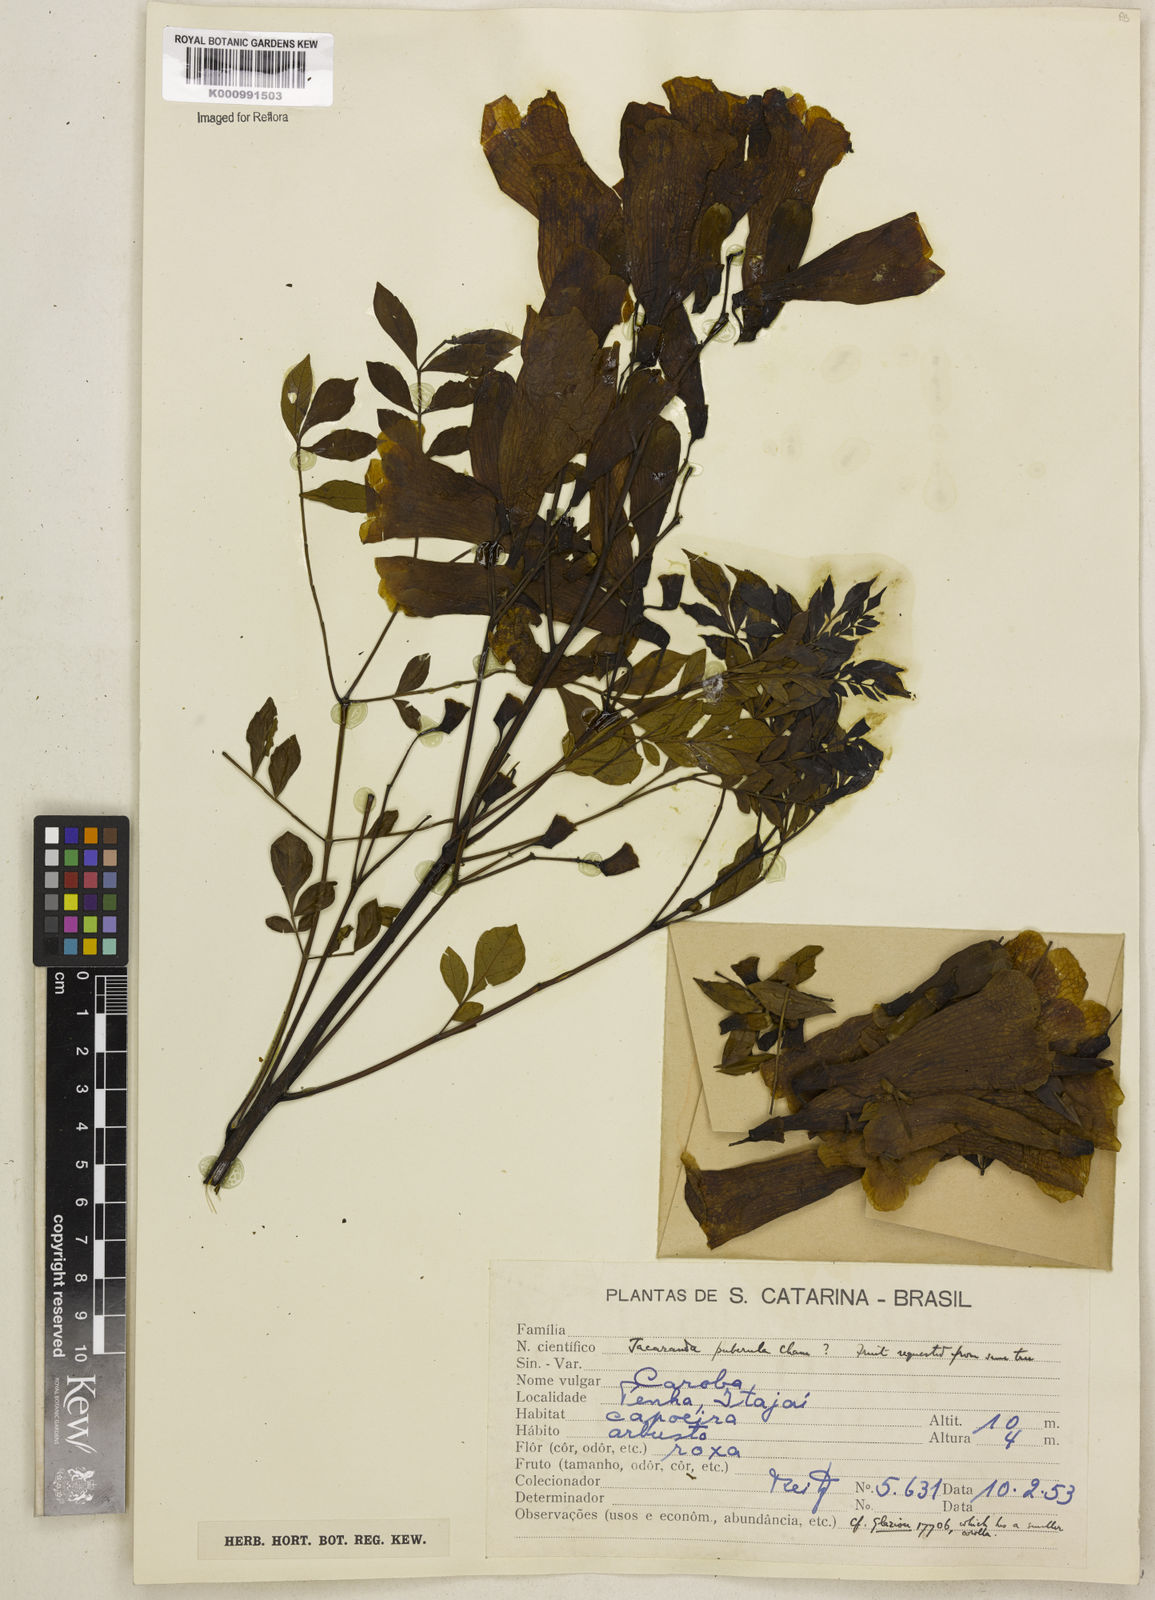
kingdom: Plantae
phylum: Tracheophyta
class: Magnoliopsida
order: Lamiales
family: Bignoniaceae
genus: Jacaranda
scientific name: Jacaranda puberula
